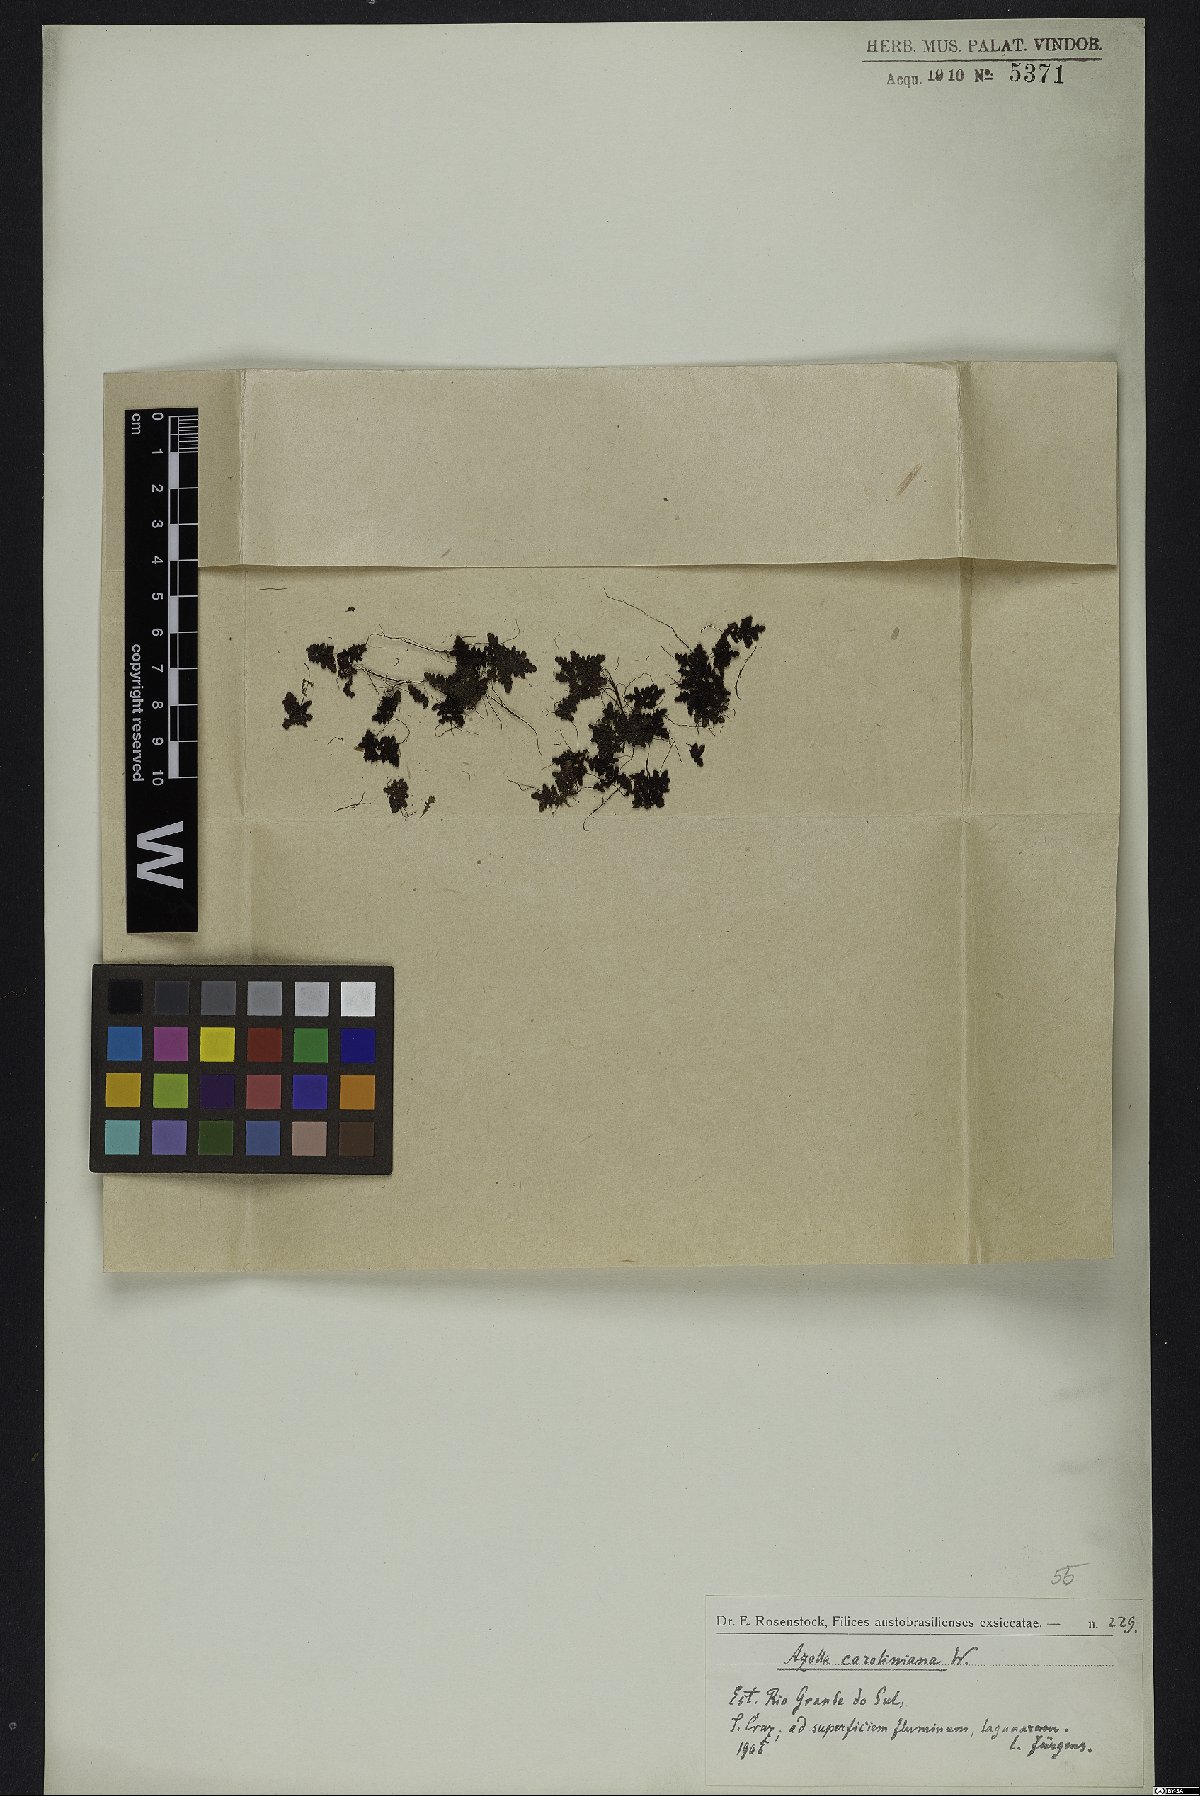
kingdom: Plantae
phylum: Tracheophyta
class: Polypodiopsida
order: Salviniales
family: Salviniaceae
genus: Azolla
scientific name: Azolla caroliniana
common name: Carolina mosquitofern
